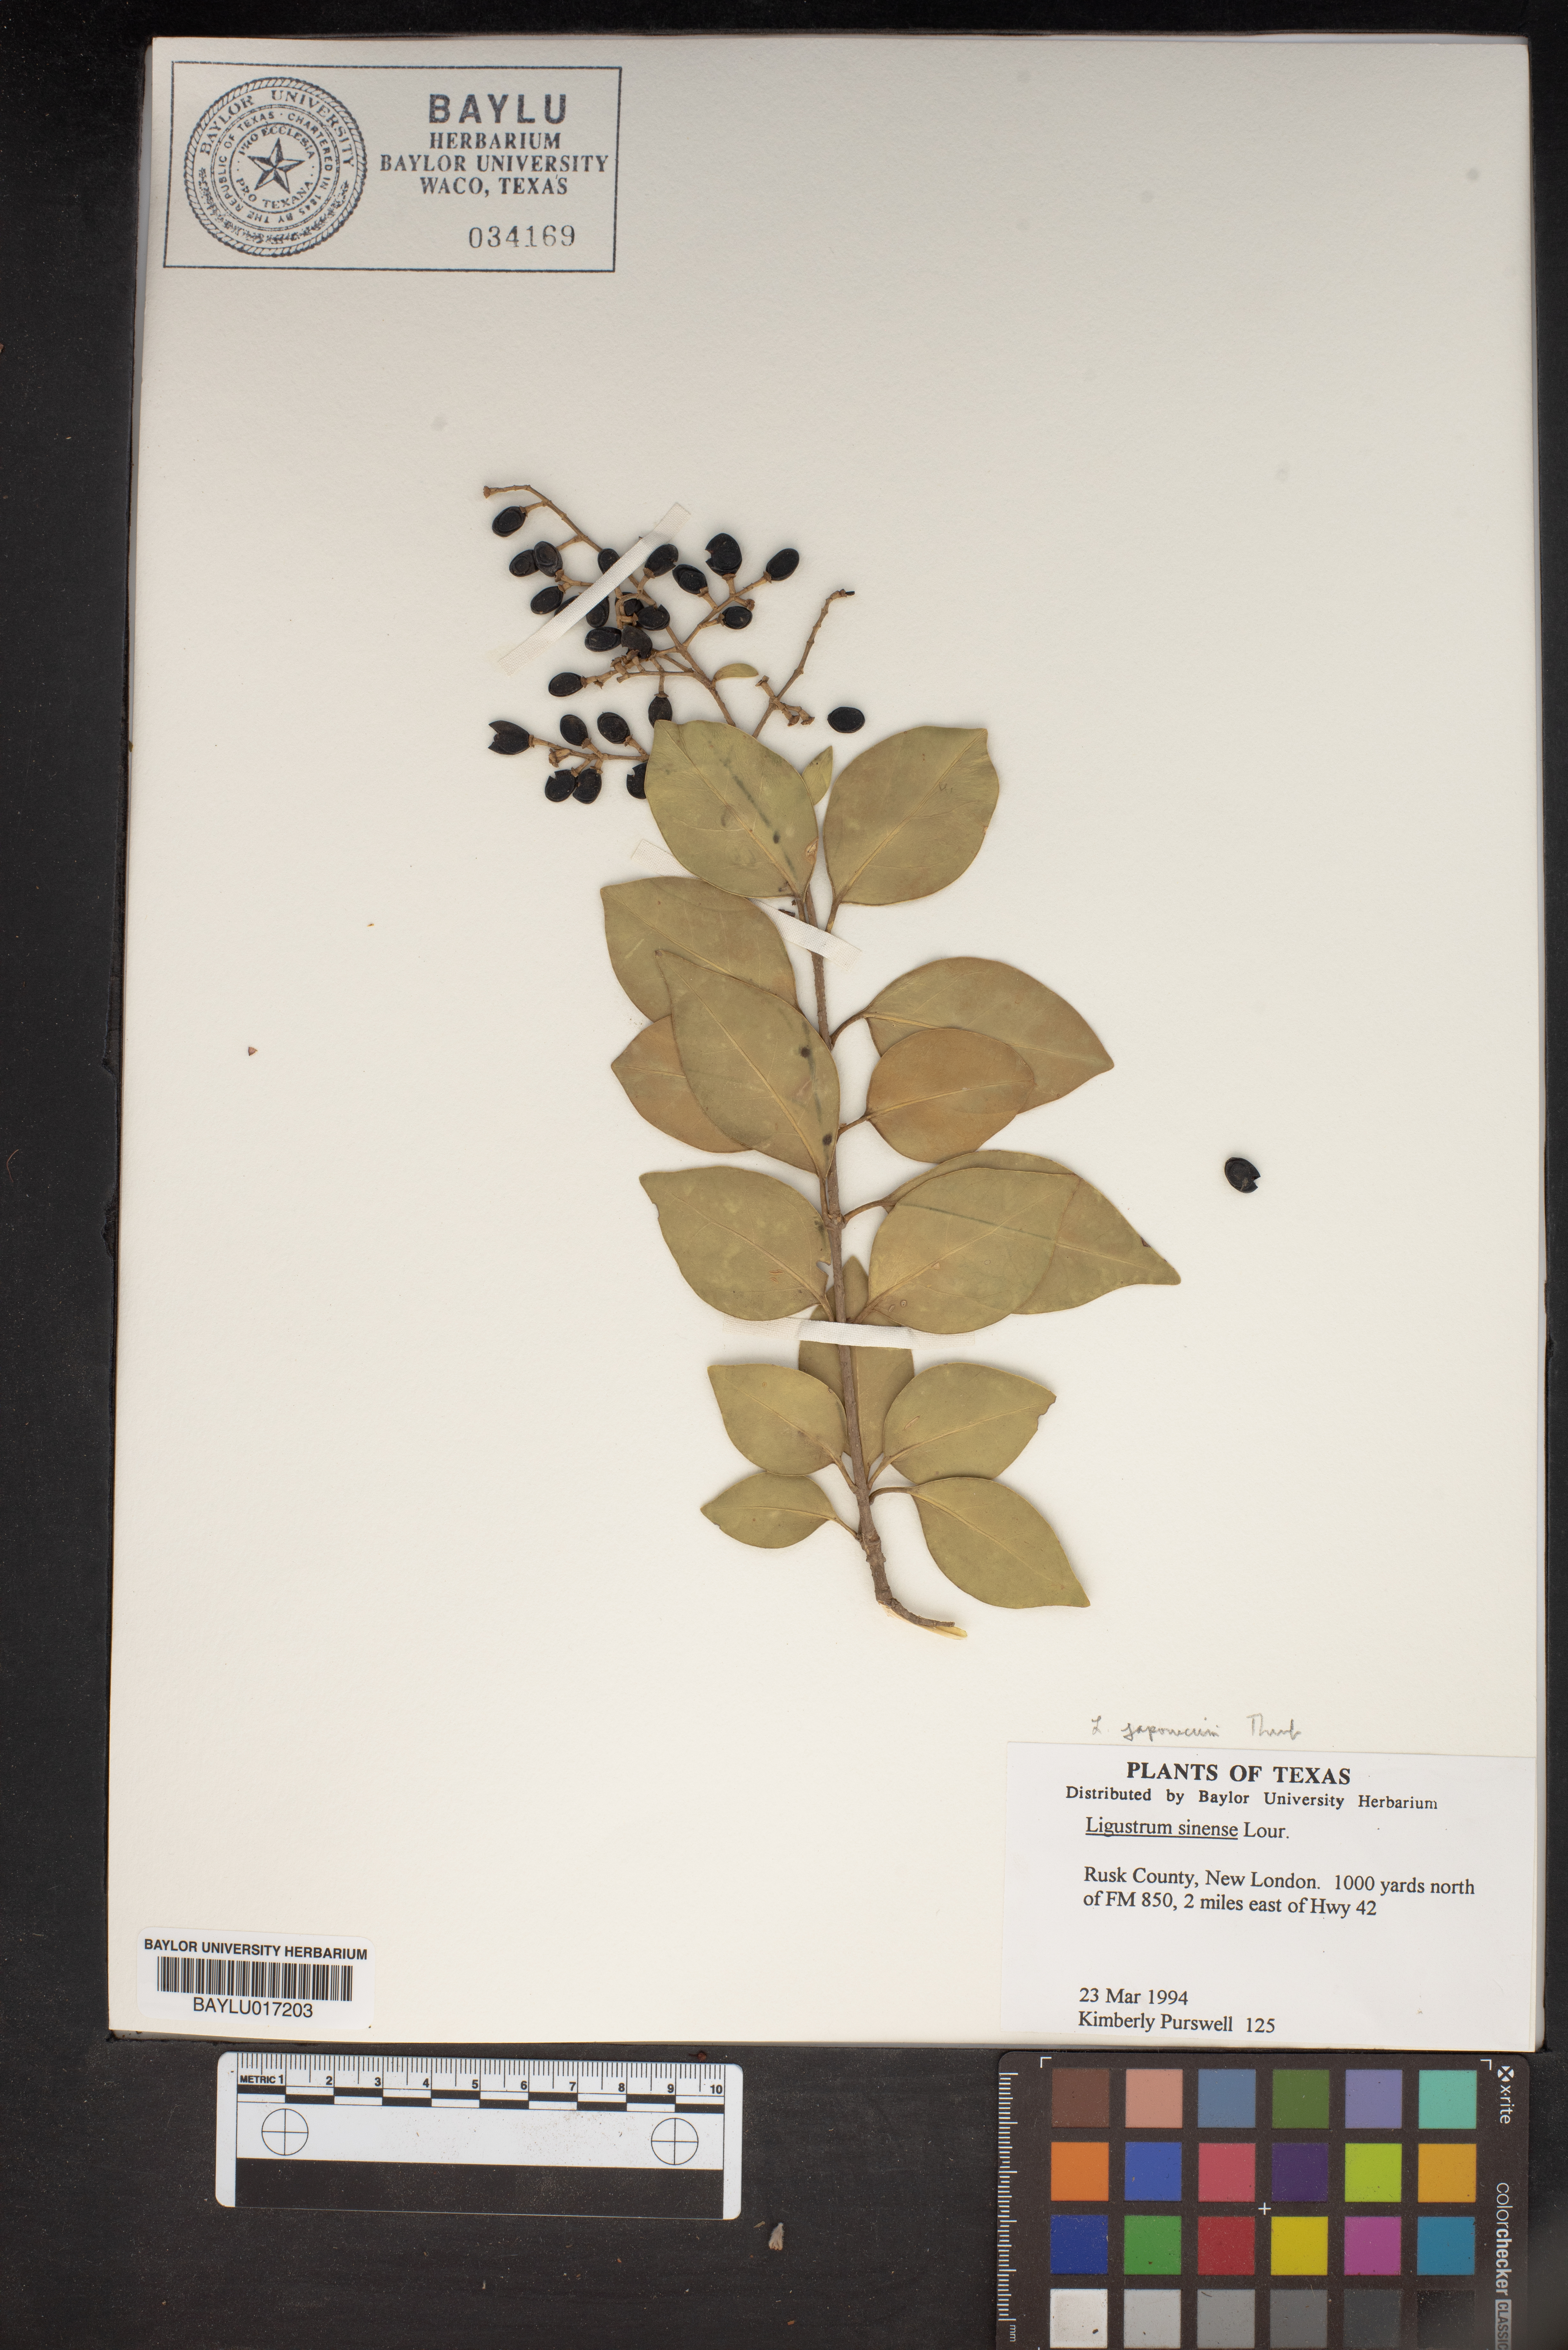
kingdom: Plantae
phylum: Tracheophyta
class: Magnoliopsida
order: Lamiales
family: Oleaceae
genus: Ligustrum
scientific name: Ligustrum sinense
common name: Chinese privet
